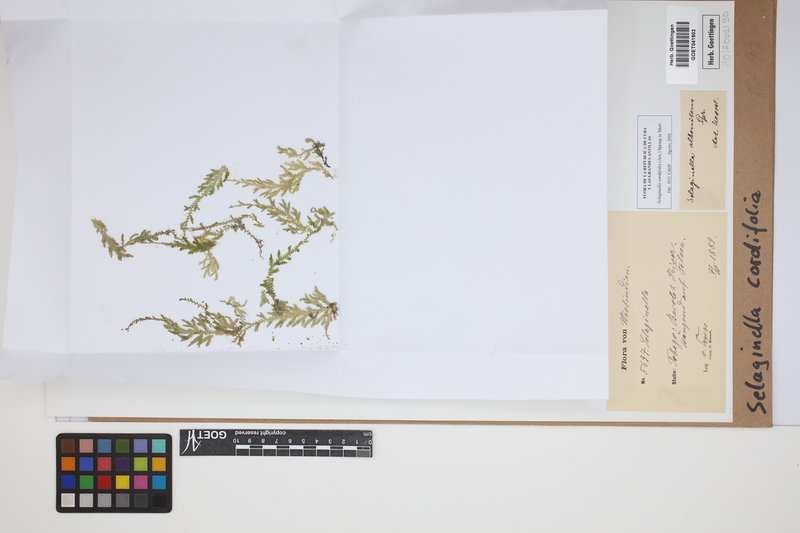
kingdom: Plantae
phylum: Tracheophyta
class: Lycopodiopsida
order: Selaginellales
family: Selaginellaceae
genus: Selaginella
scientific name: Selaginella cordifolia
